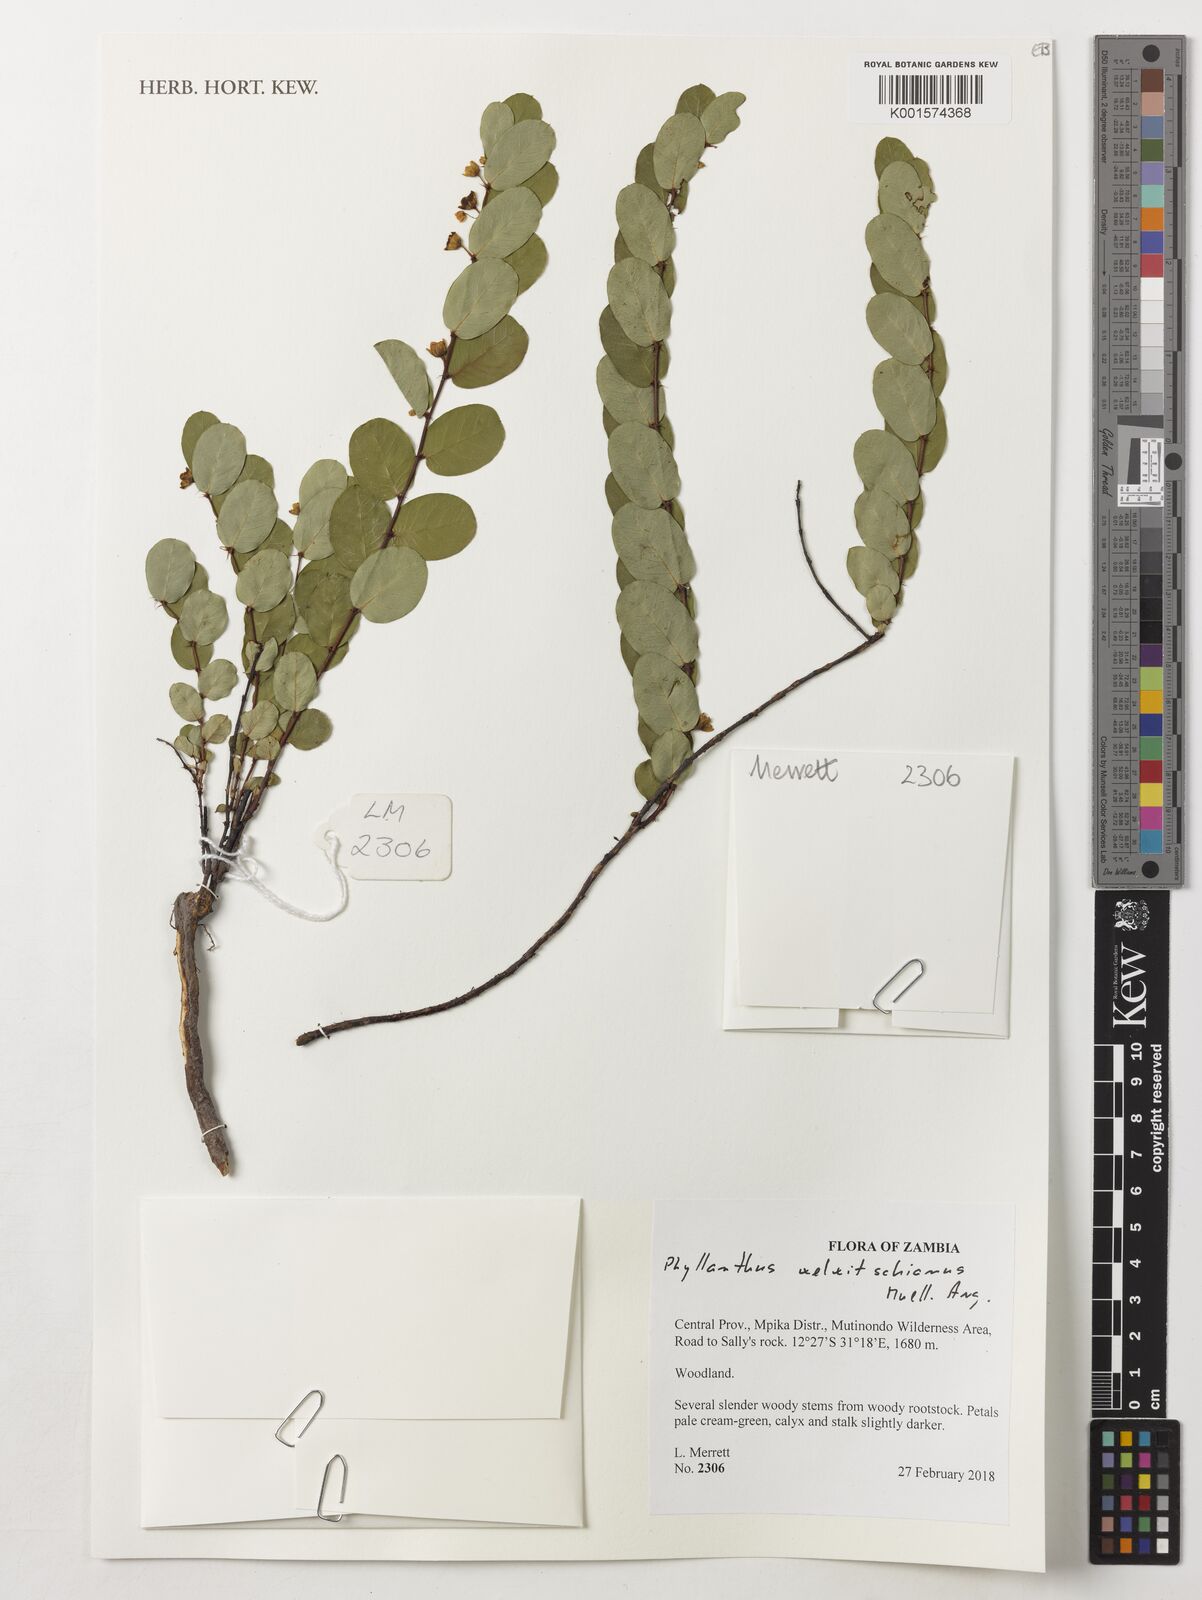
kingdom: Plantae
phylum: Tracheophyta
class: Magnoliopsida
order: Malpighiales
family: Phyllanthaceae
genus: Phyllanthus
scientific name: Phyllanthus welwitschianus
